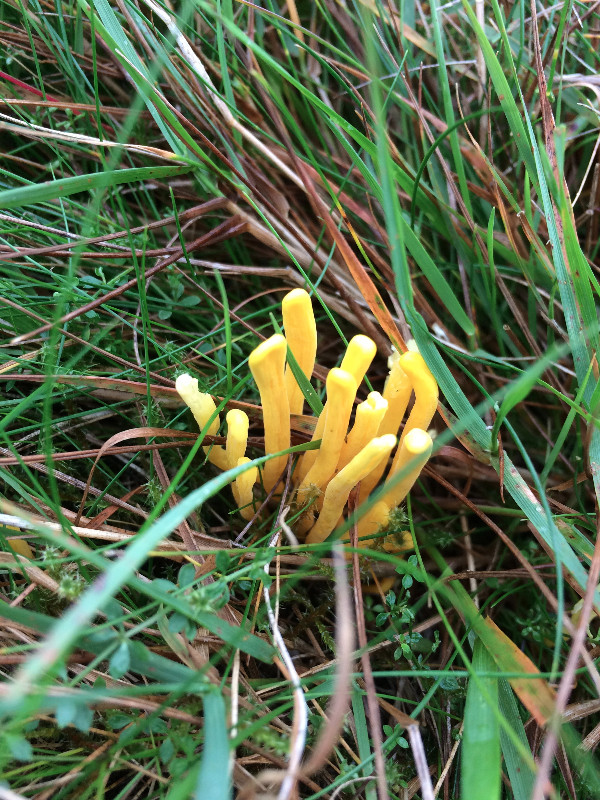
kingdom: Fungi
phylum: Basidiomycota
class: Agaricomycetes
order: Agaricales
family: Clavariaceae
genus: Clavulinopsis
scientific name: Clavulinopsis
